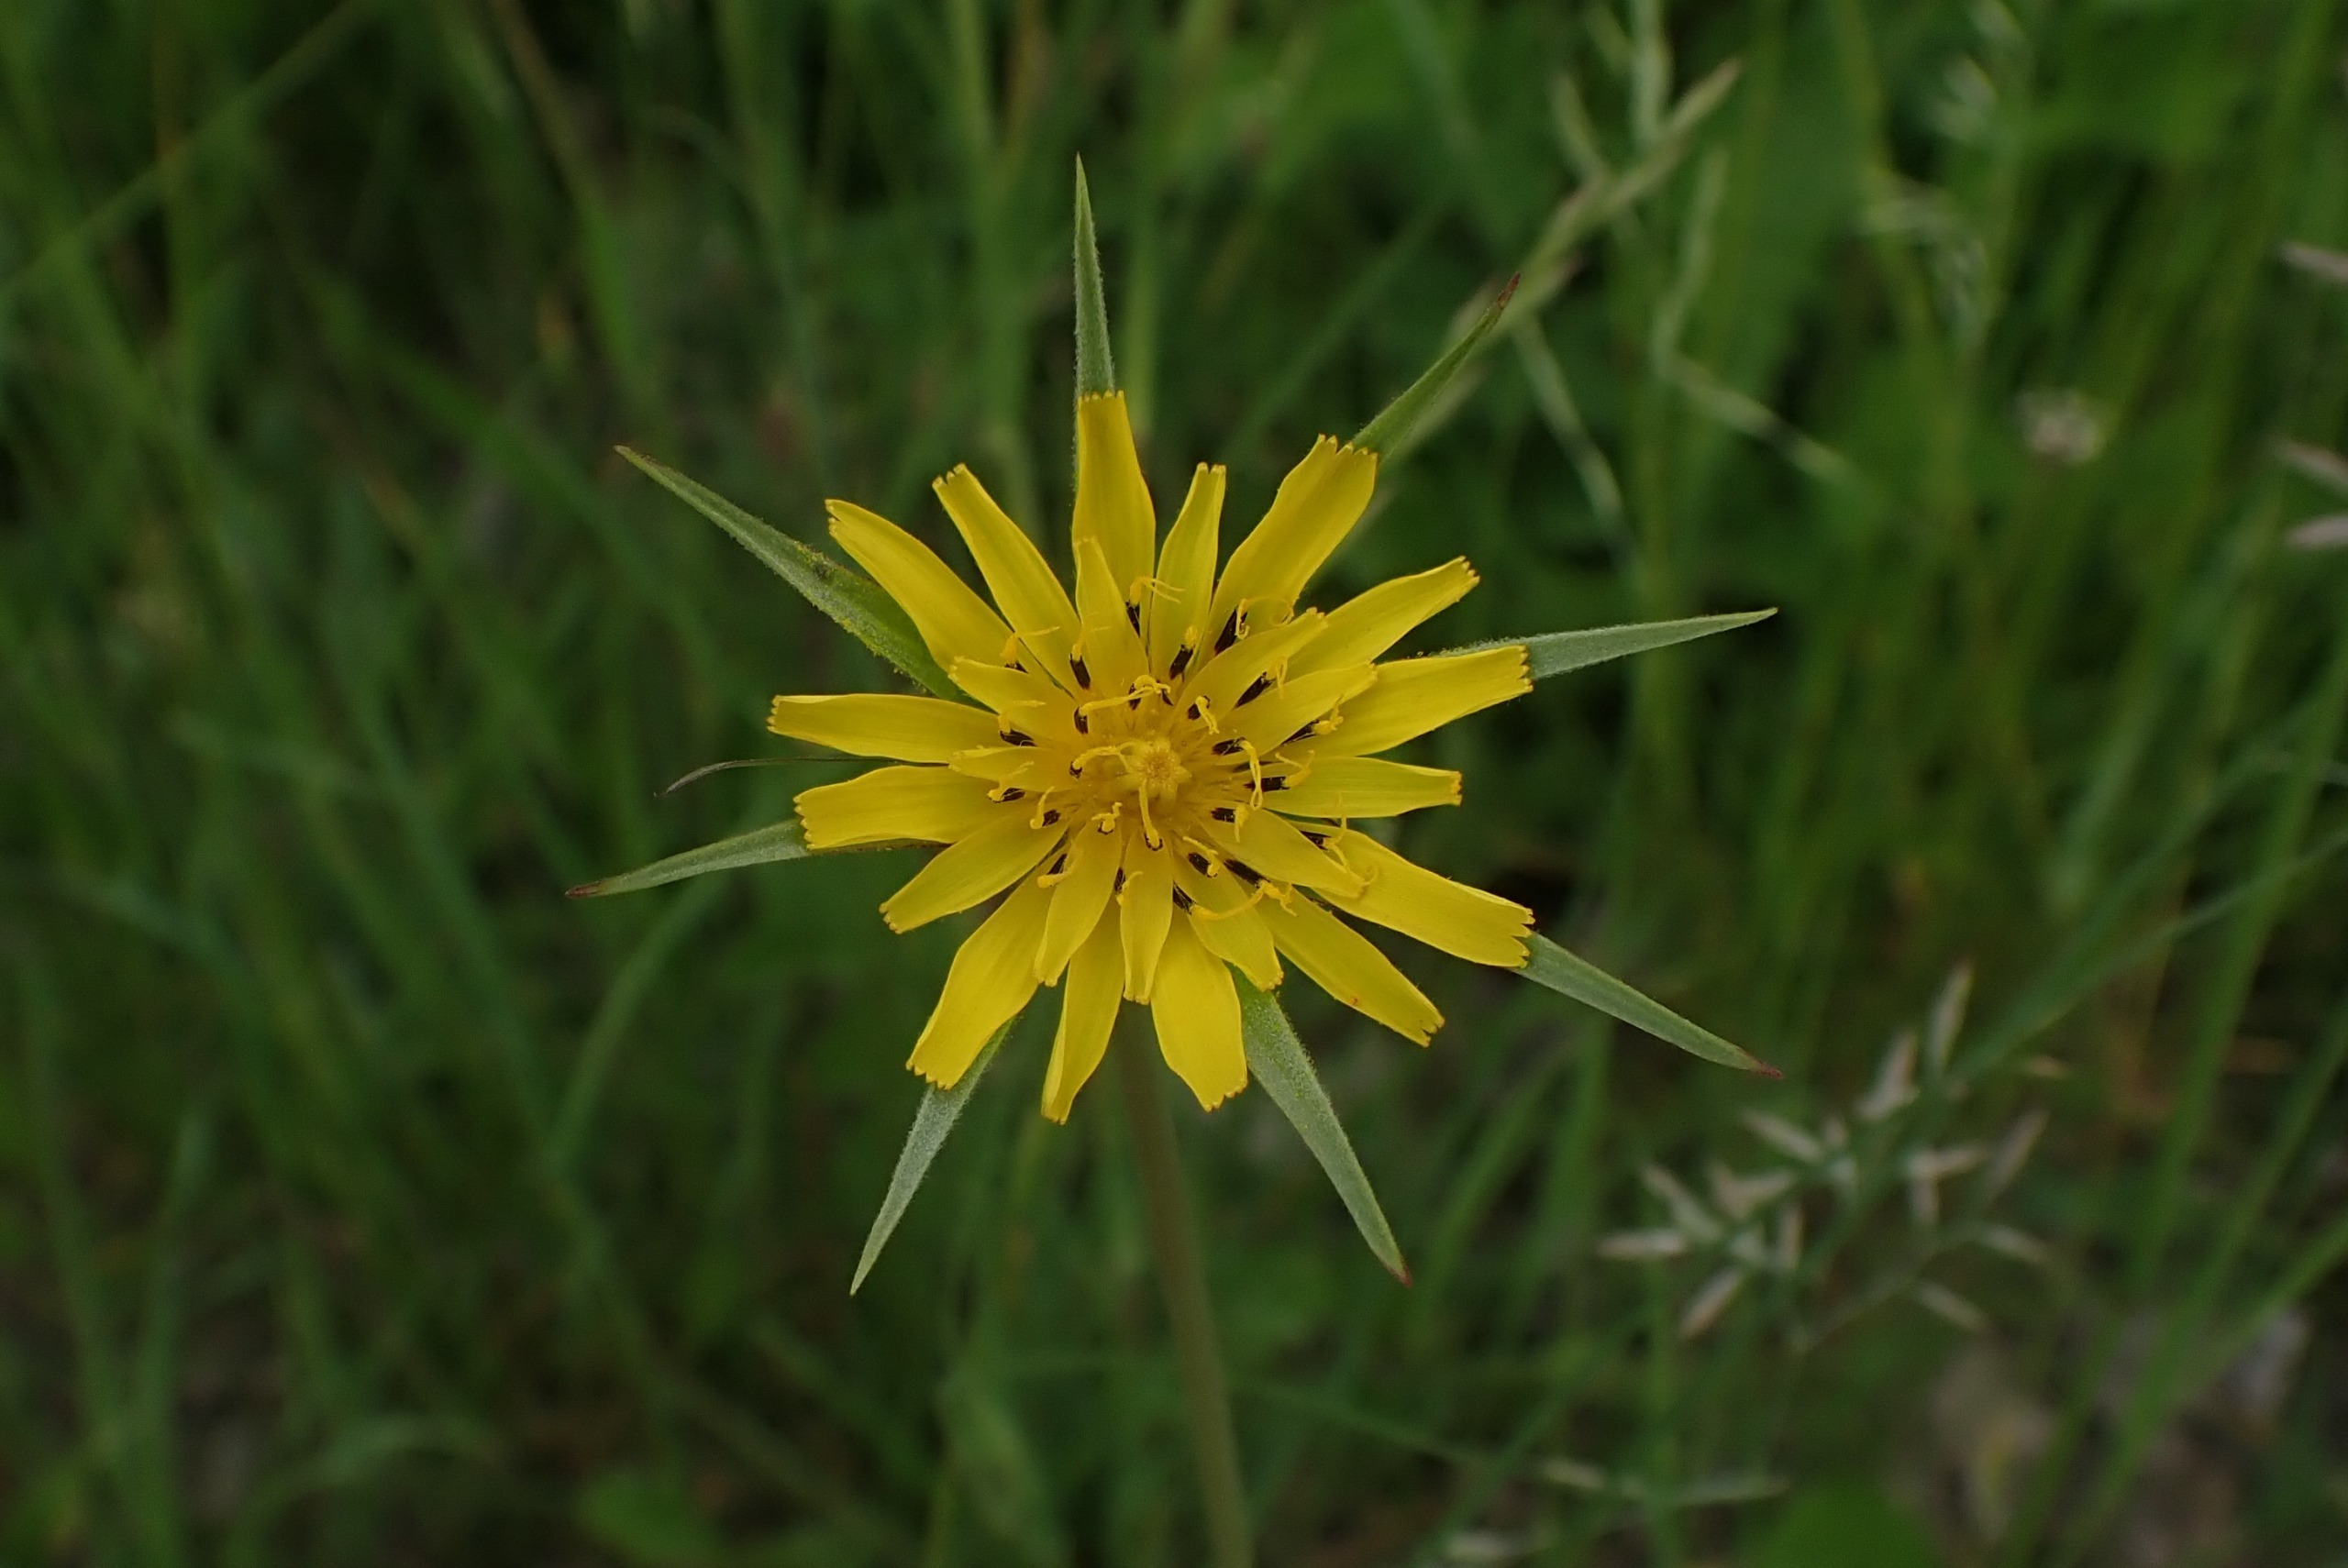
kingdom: Plantae
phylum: Tracheophyta
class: Magnoliopsida
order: Asterales
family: Asteraceae
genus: Tragopogon
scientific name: Tragopogon minor
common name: Småkronet gedeskæg
